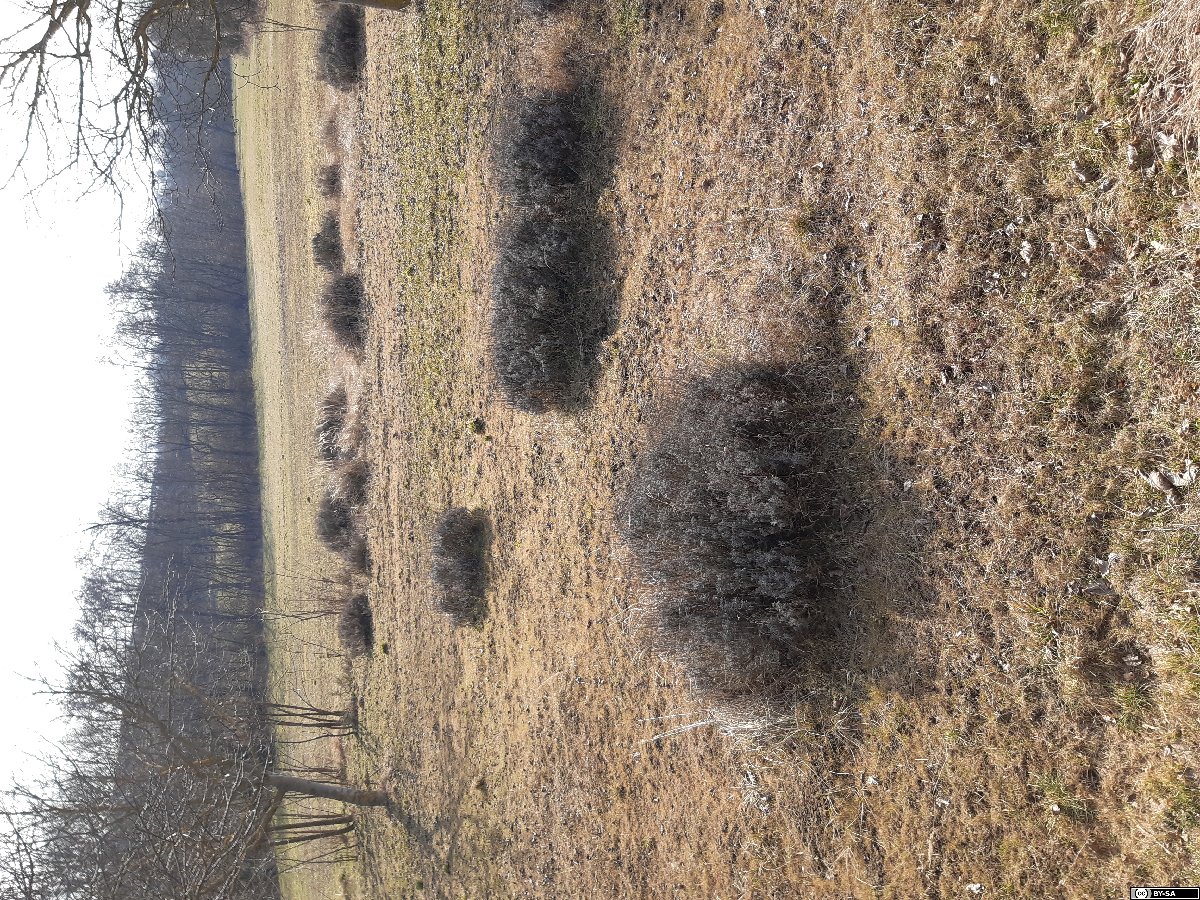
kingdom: Plantae
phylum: Tracheophyta
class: Magnoliopsida
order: Lamiales
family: Lamiaceae
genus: Lavandula
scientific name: Lavandula angustifolia
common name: Garden lavender
